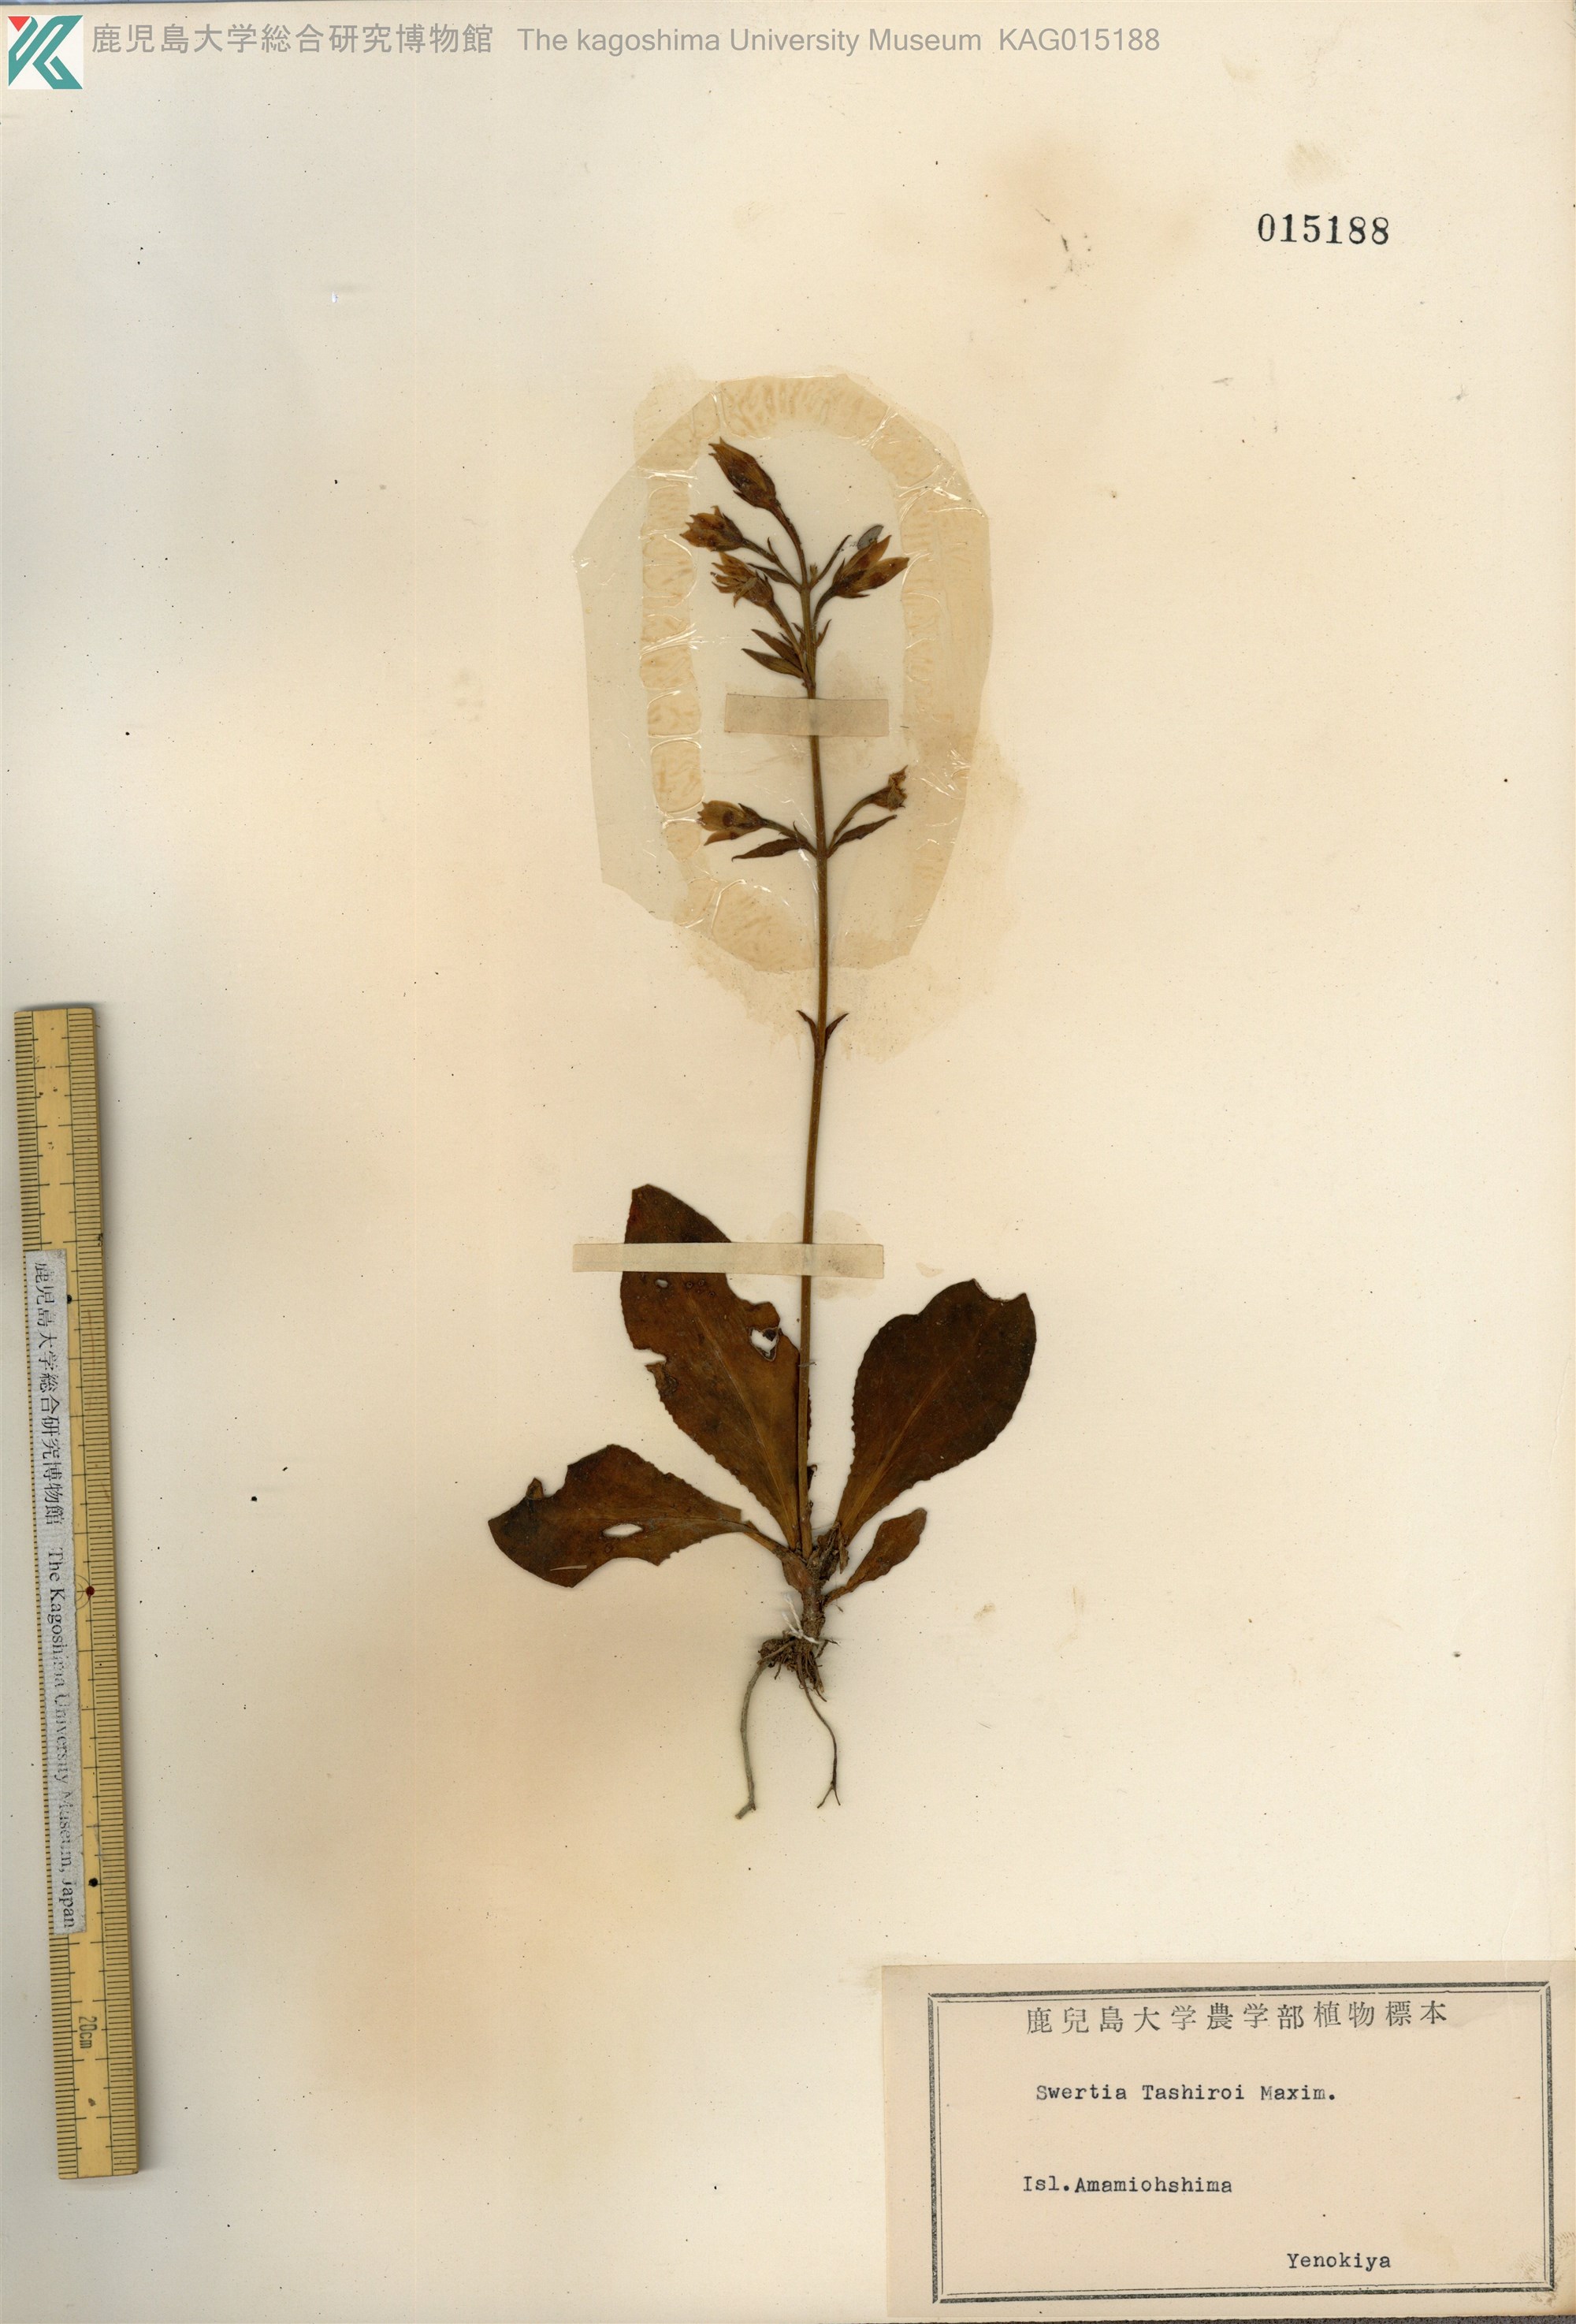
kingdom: Plantae
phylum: Tracheophyta
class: Magnoliopsida
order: Gentianales
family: Gentianaceae
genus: Swertia
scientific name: Swertia tashiroi
